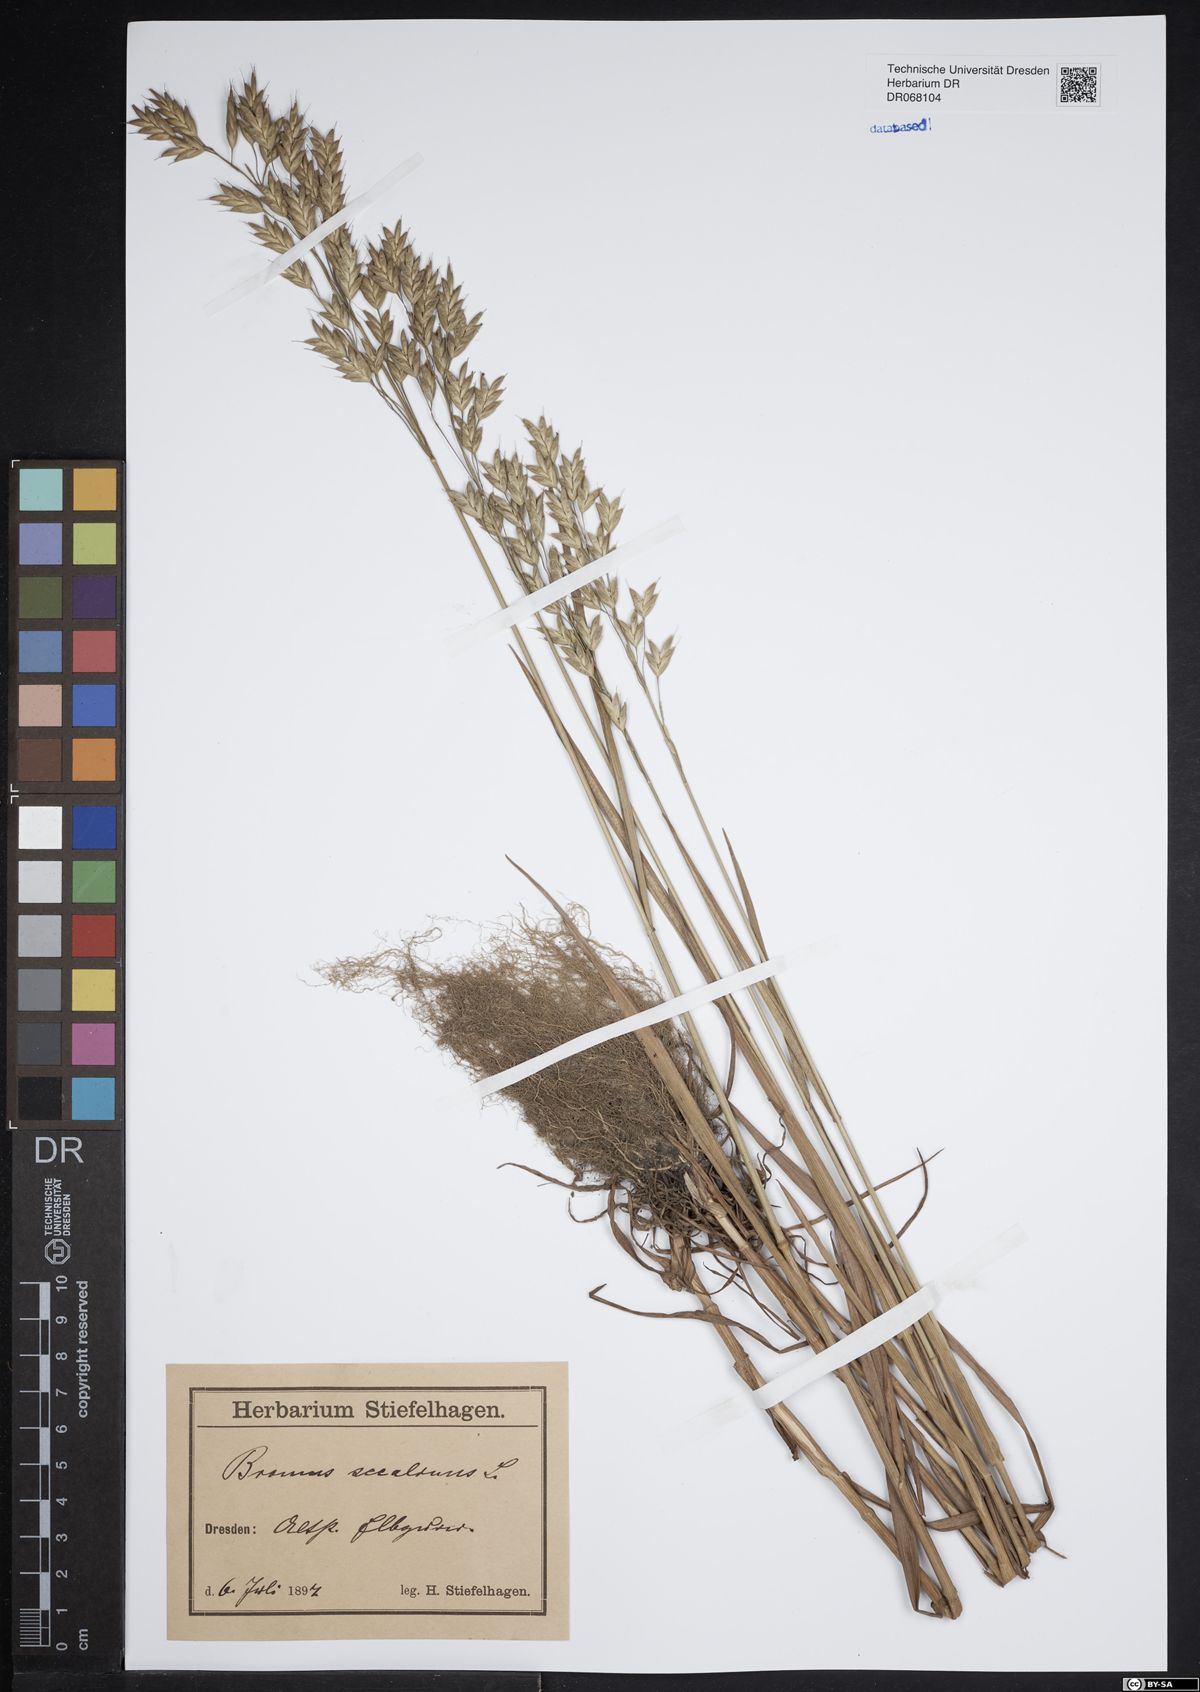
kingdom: Plantae
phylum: Tracheophyta
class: Liliopsida
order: Poales
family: Poaceae
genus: Bromus
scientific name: Bromus secalinus
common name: Rye brome
